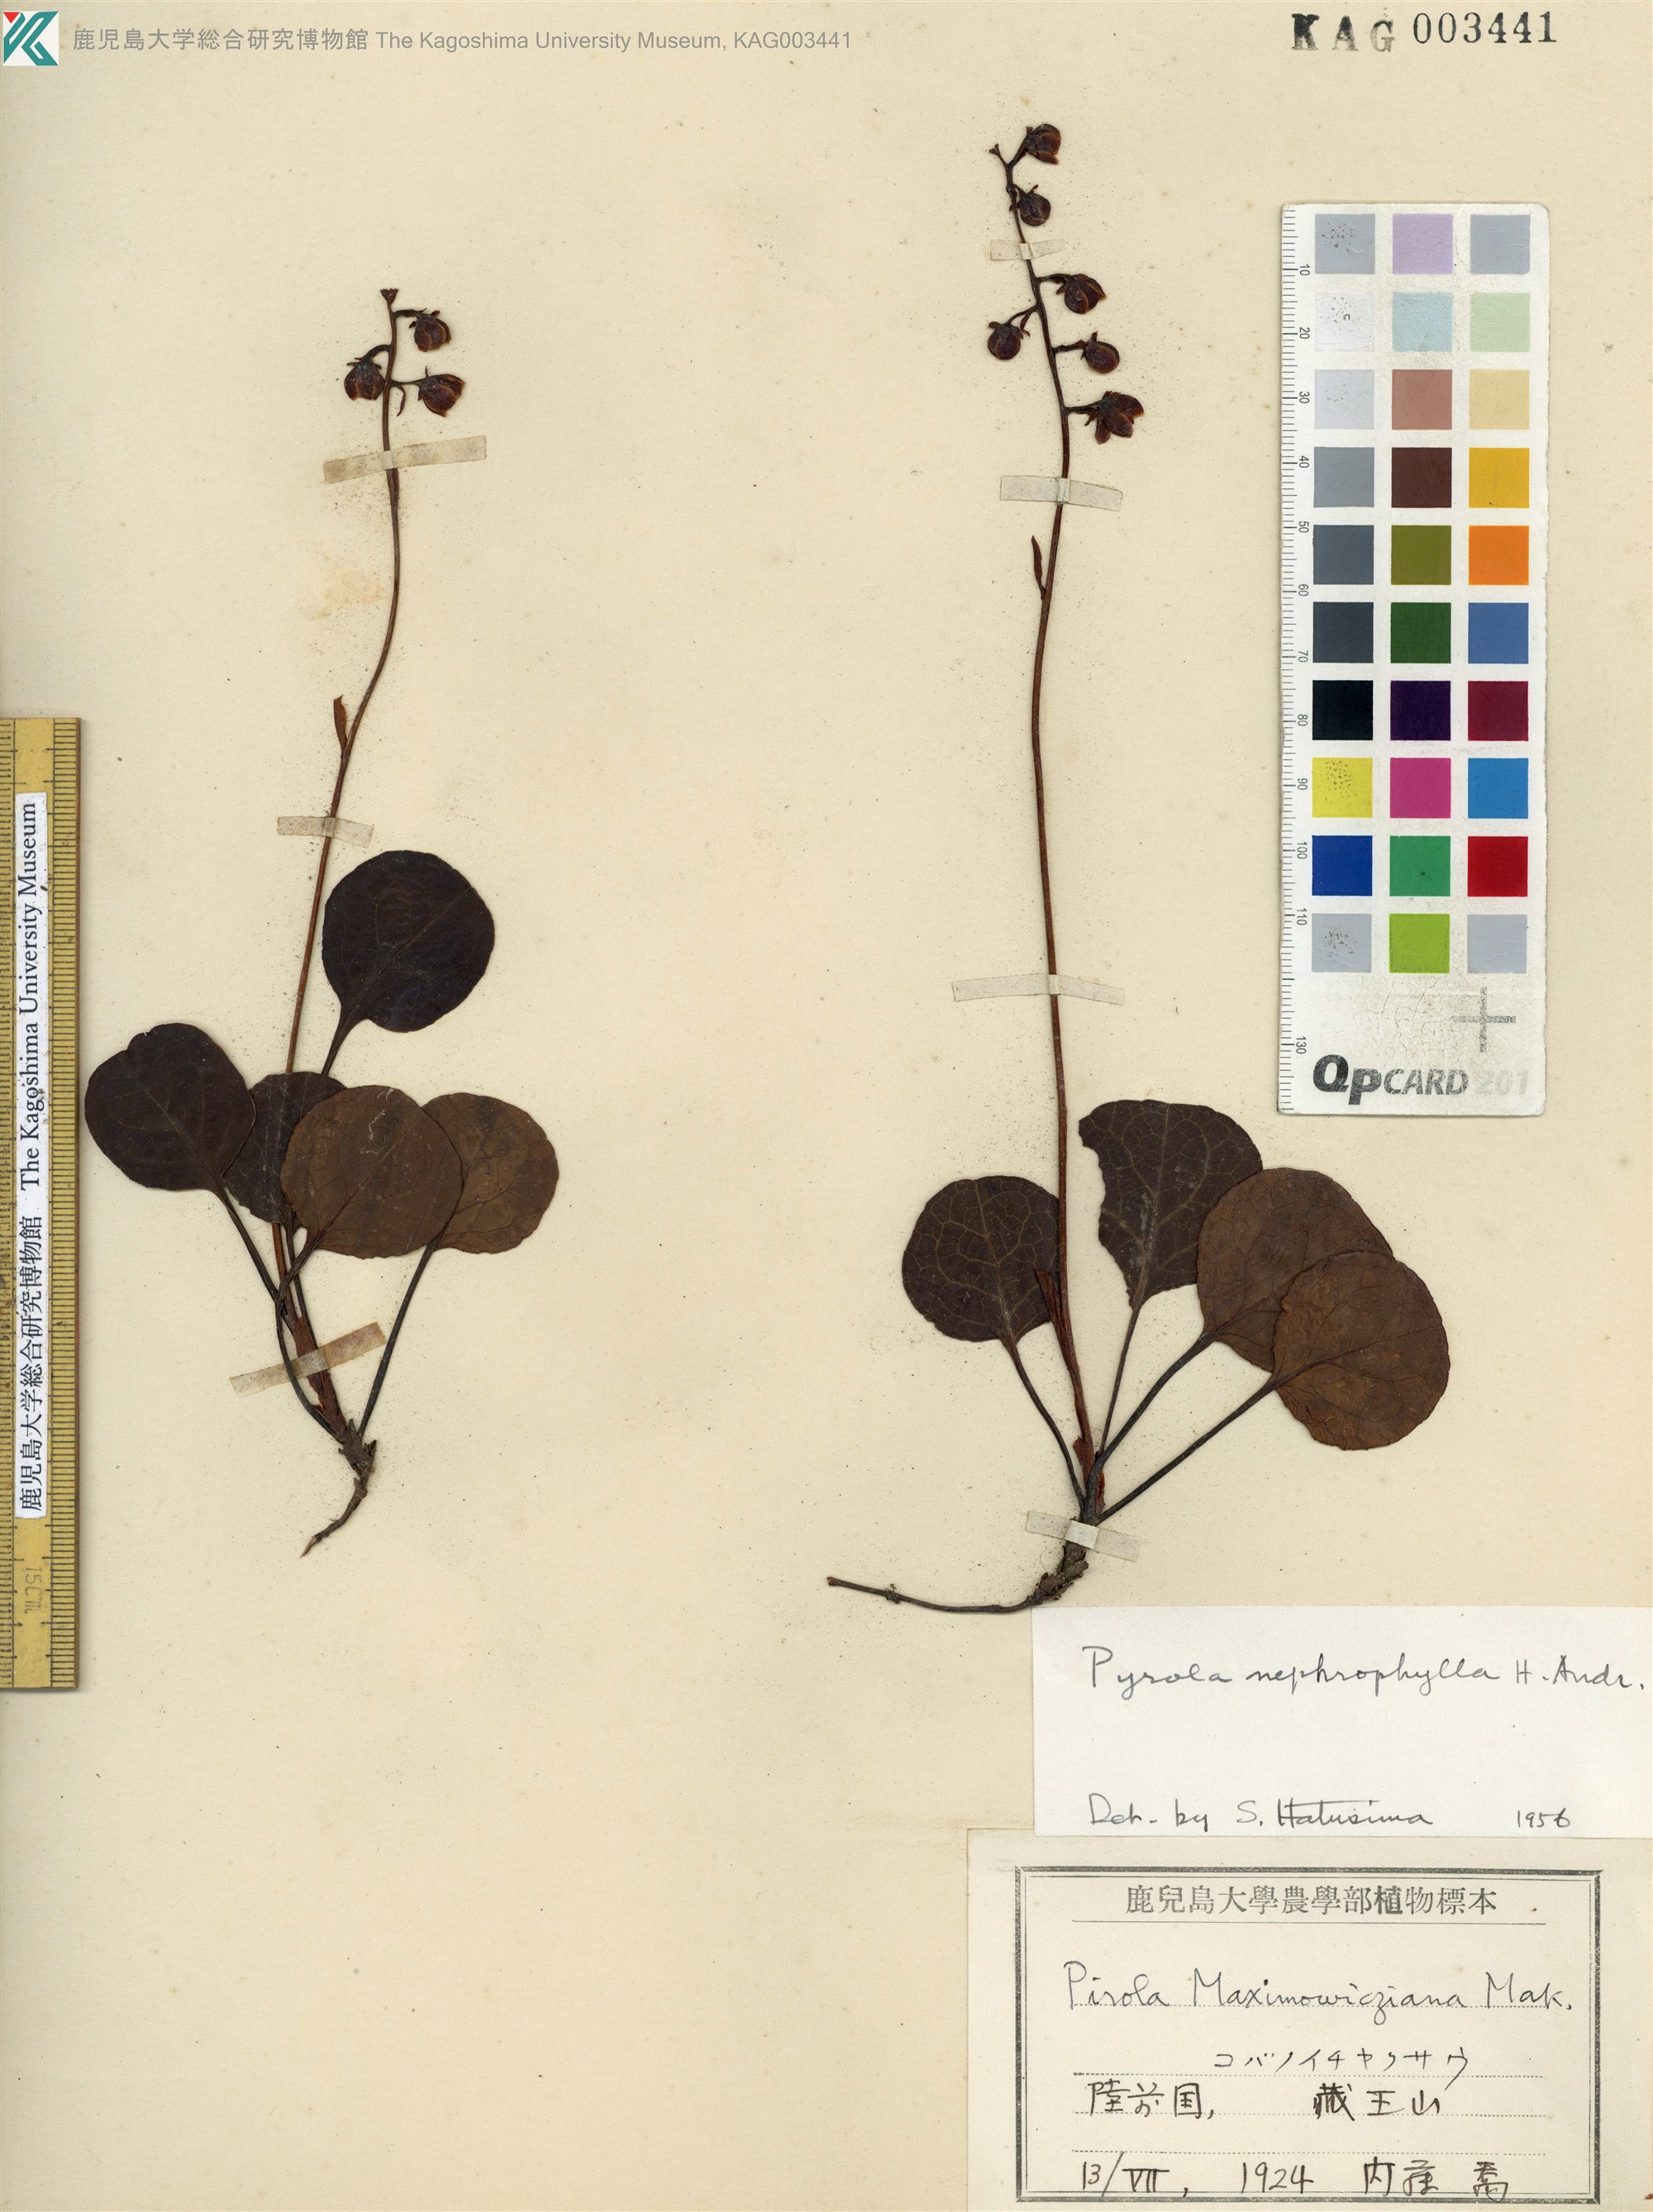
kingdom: Plantae
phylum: Tracheophyta
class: Magnoliopsida
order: Ericales
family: Ericaceae
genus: Pyrola
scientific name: Pyrola nephrophylla
